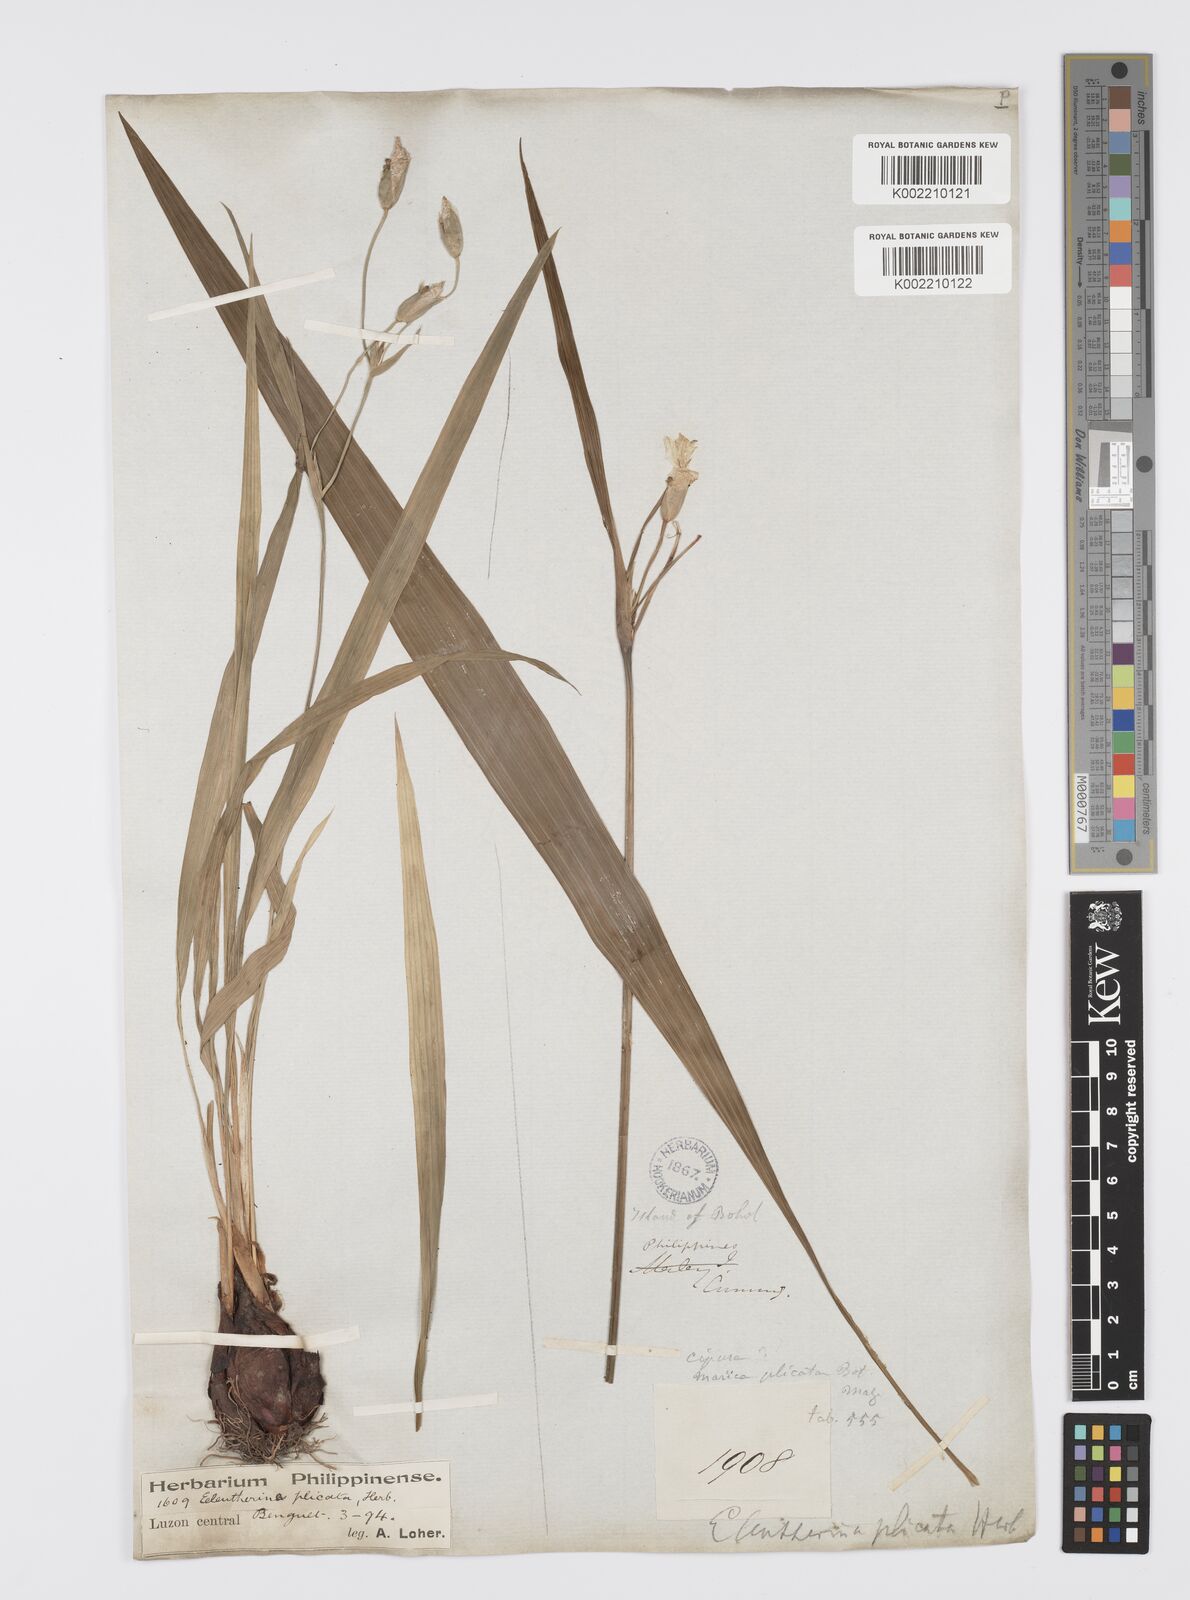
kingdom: Plantae
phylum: Tracheophyta
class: Liliopsida
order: Asparagales
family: Iridaceae
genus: Eleutherine
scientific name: Eleutherine bulbosa
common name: Lagrimas de la virgen
